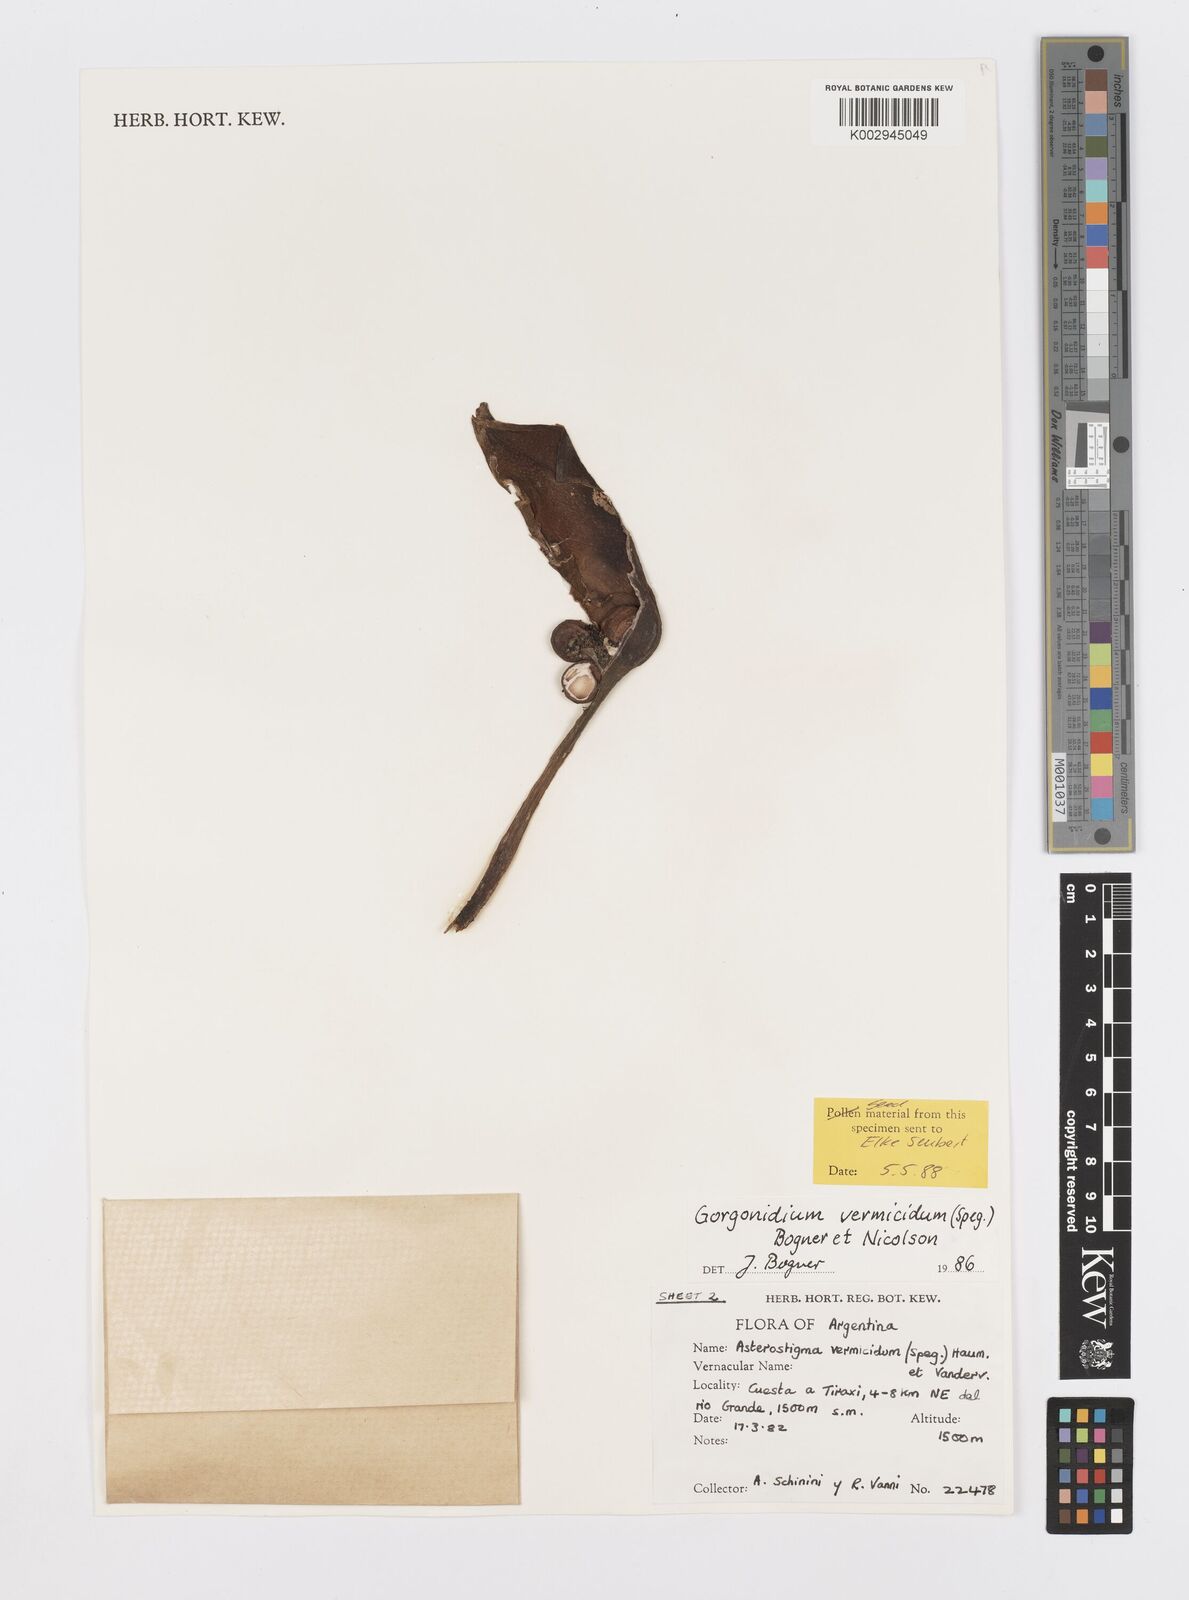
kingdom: Plantae
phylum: Tracheophyta
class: Liliopsida
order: Alismatales
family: Araceae
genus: Gorgonidium
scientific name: Gorgonidium vermicidum
